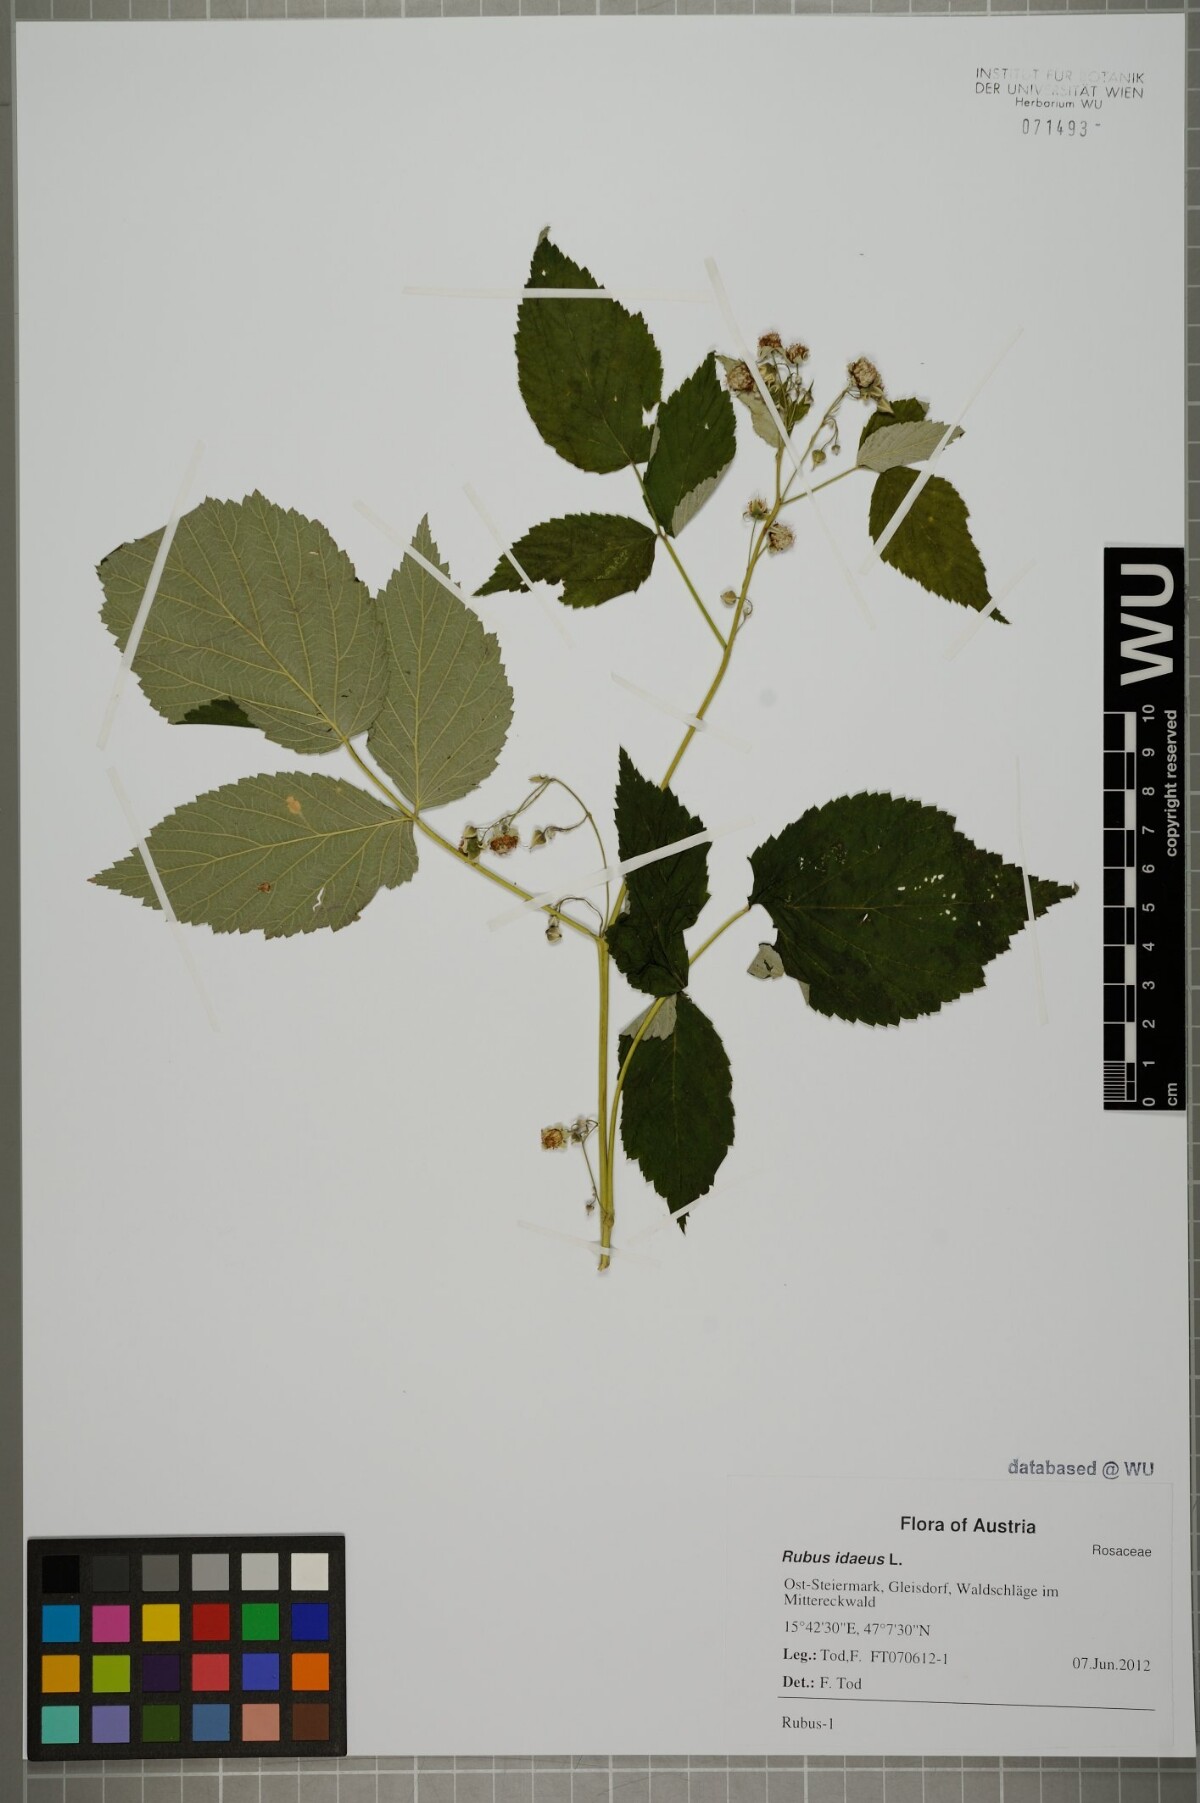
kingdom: Plantae
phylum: Tracheophyta
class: Magnoliopsida
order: Rosales
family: Rosaceae
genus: Rubus
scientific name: Rubus idaeus
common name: Raspberry
